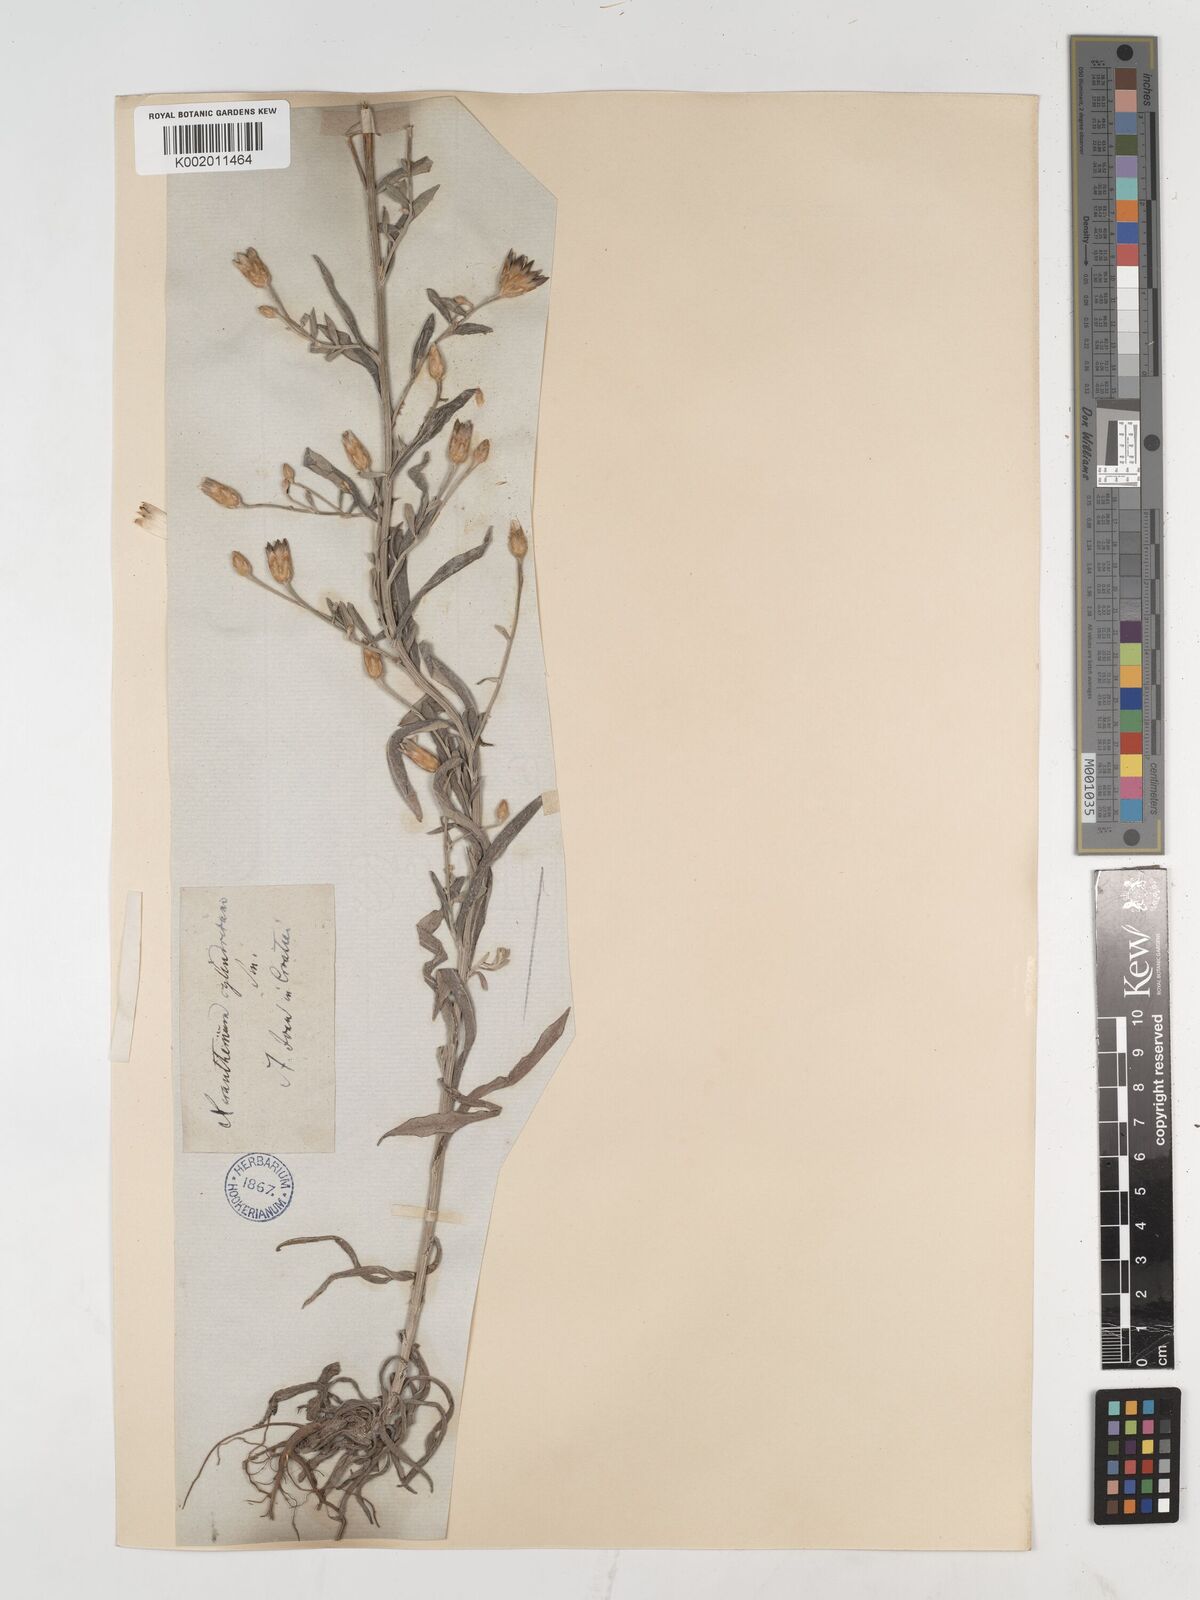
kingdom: Plantae
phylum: Tracheophyta
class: Magnoliopsida
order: Asterales
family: Asteraceae
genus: Xeranthemum
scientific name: Xeranthemum cylindraceum
